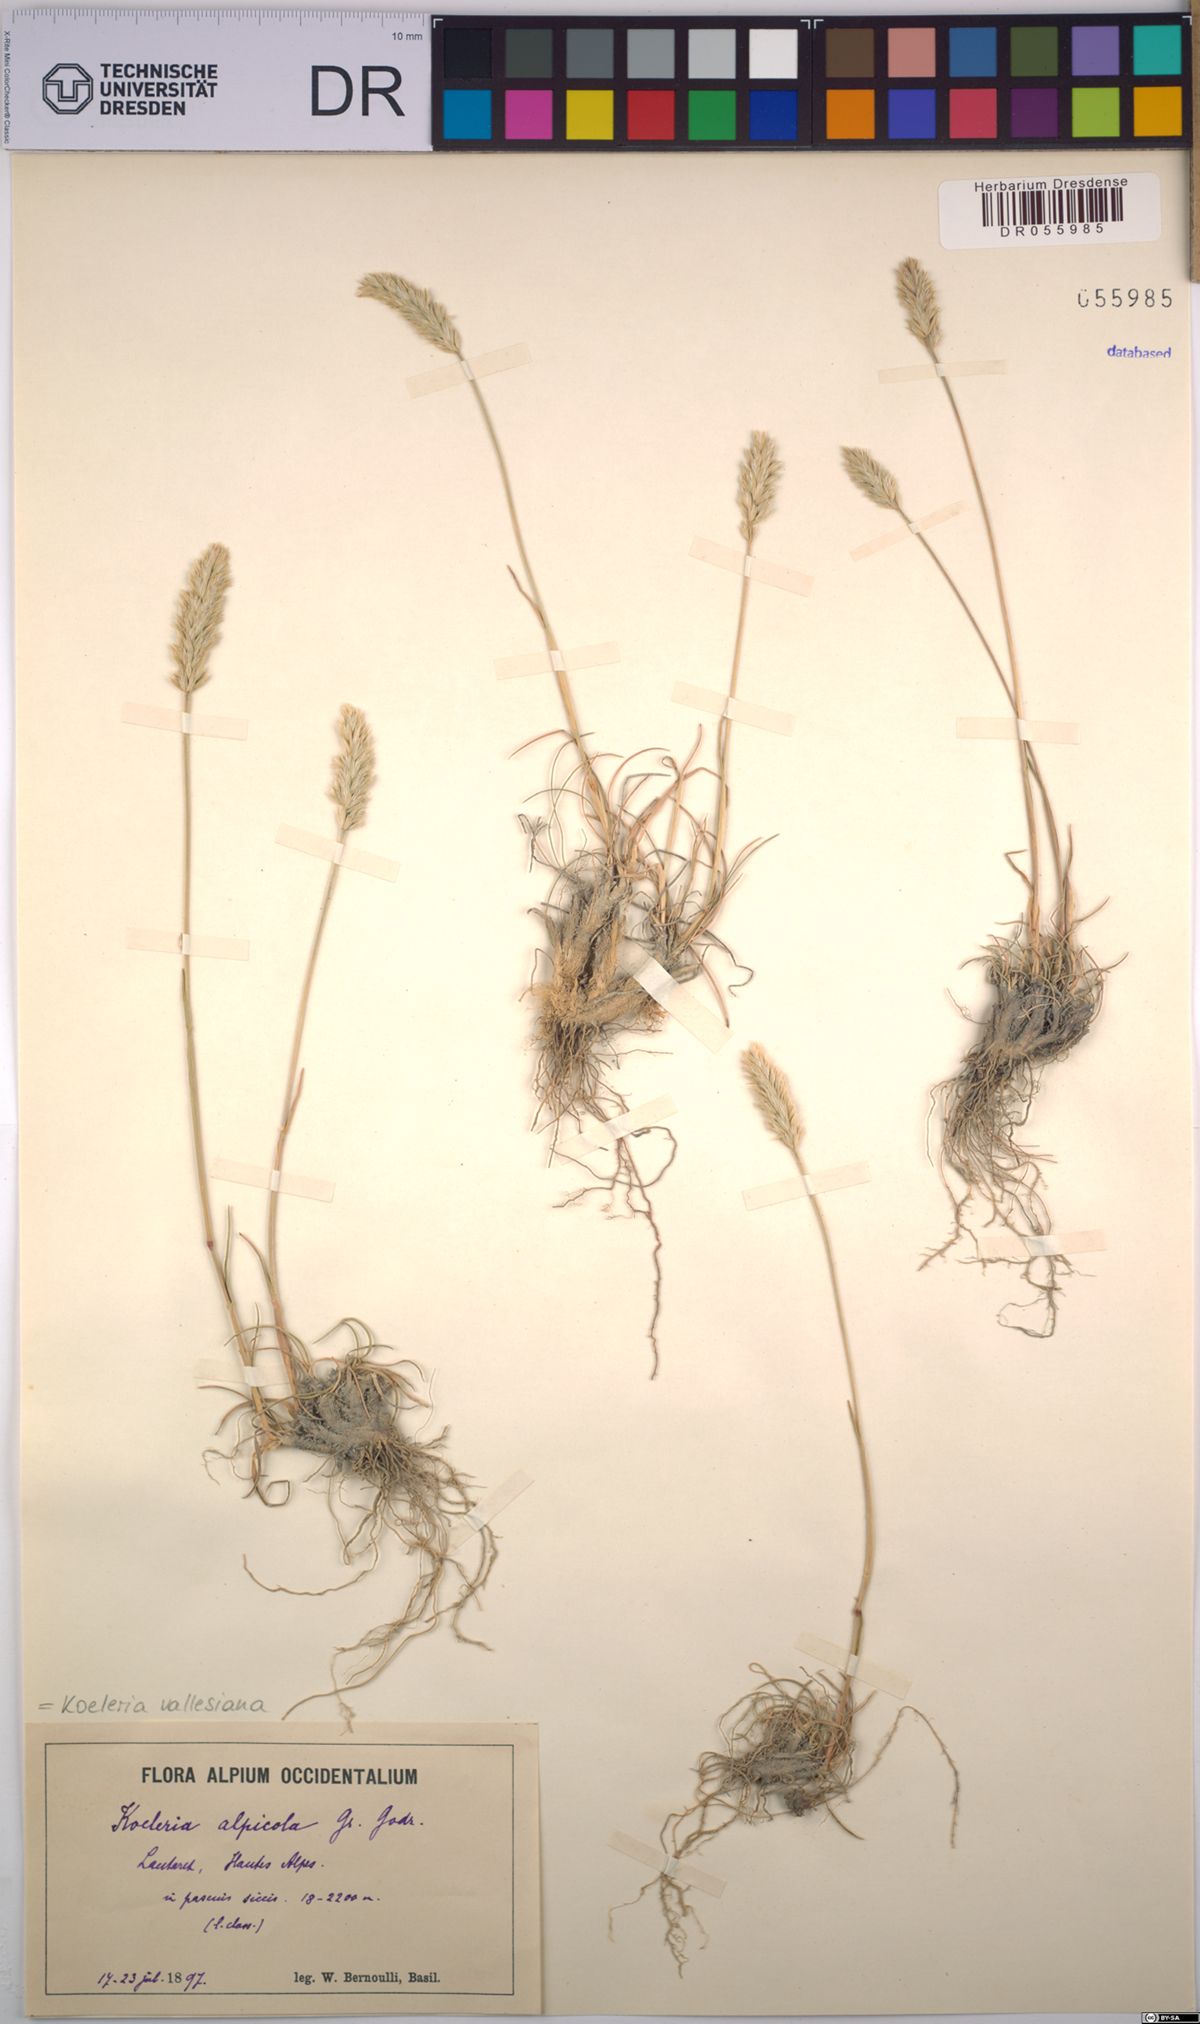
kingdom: Plantae
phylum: Tracheophyta
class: Liliopsida
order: Poales
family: Poaceae
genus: Koeleria
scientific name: Koeleria vallesiana
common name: Somerset hair-grass
